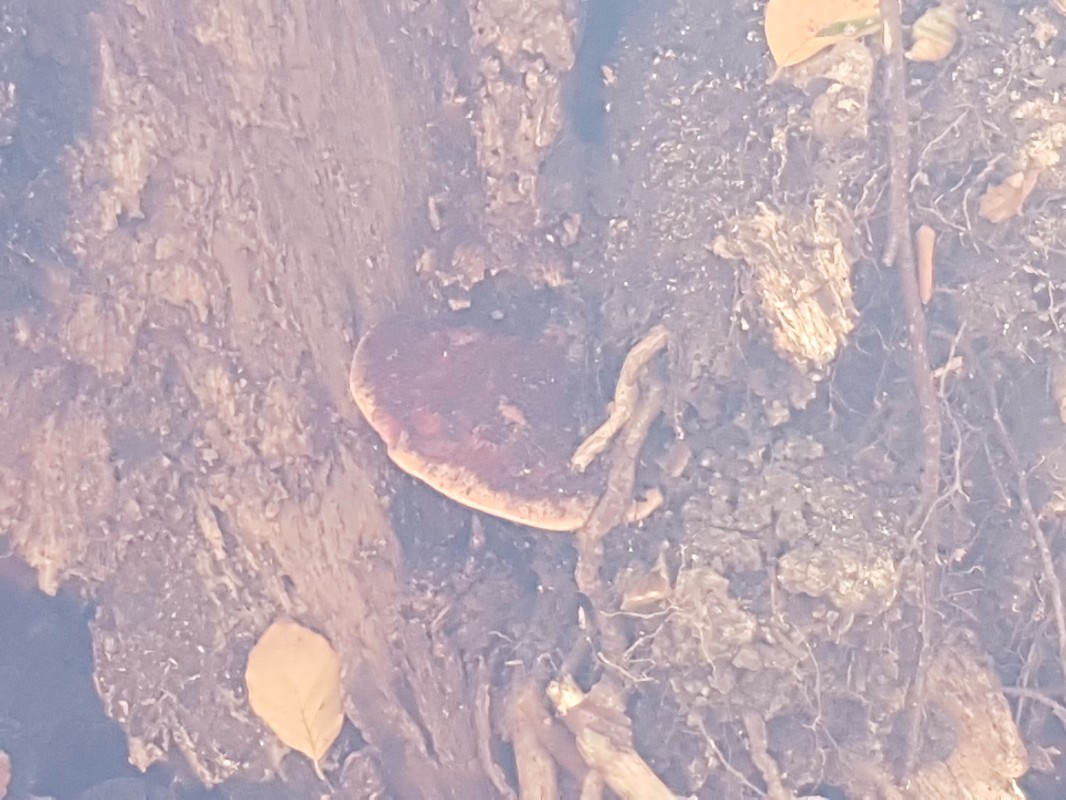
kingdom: Fungi
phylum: Basidiomycota
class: Agaricomycetes
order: Agaricales
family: Fistulinaceae
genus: Fistulina
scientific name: Fistulina hepatica
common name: oksetunge
